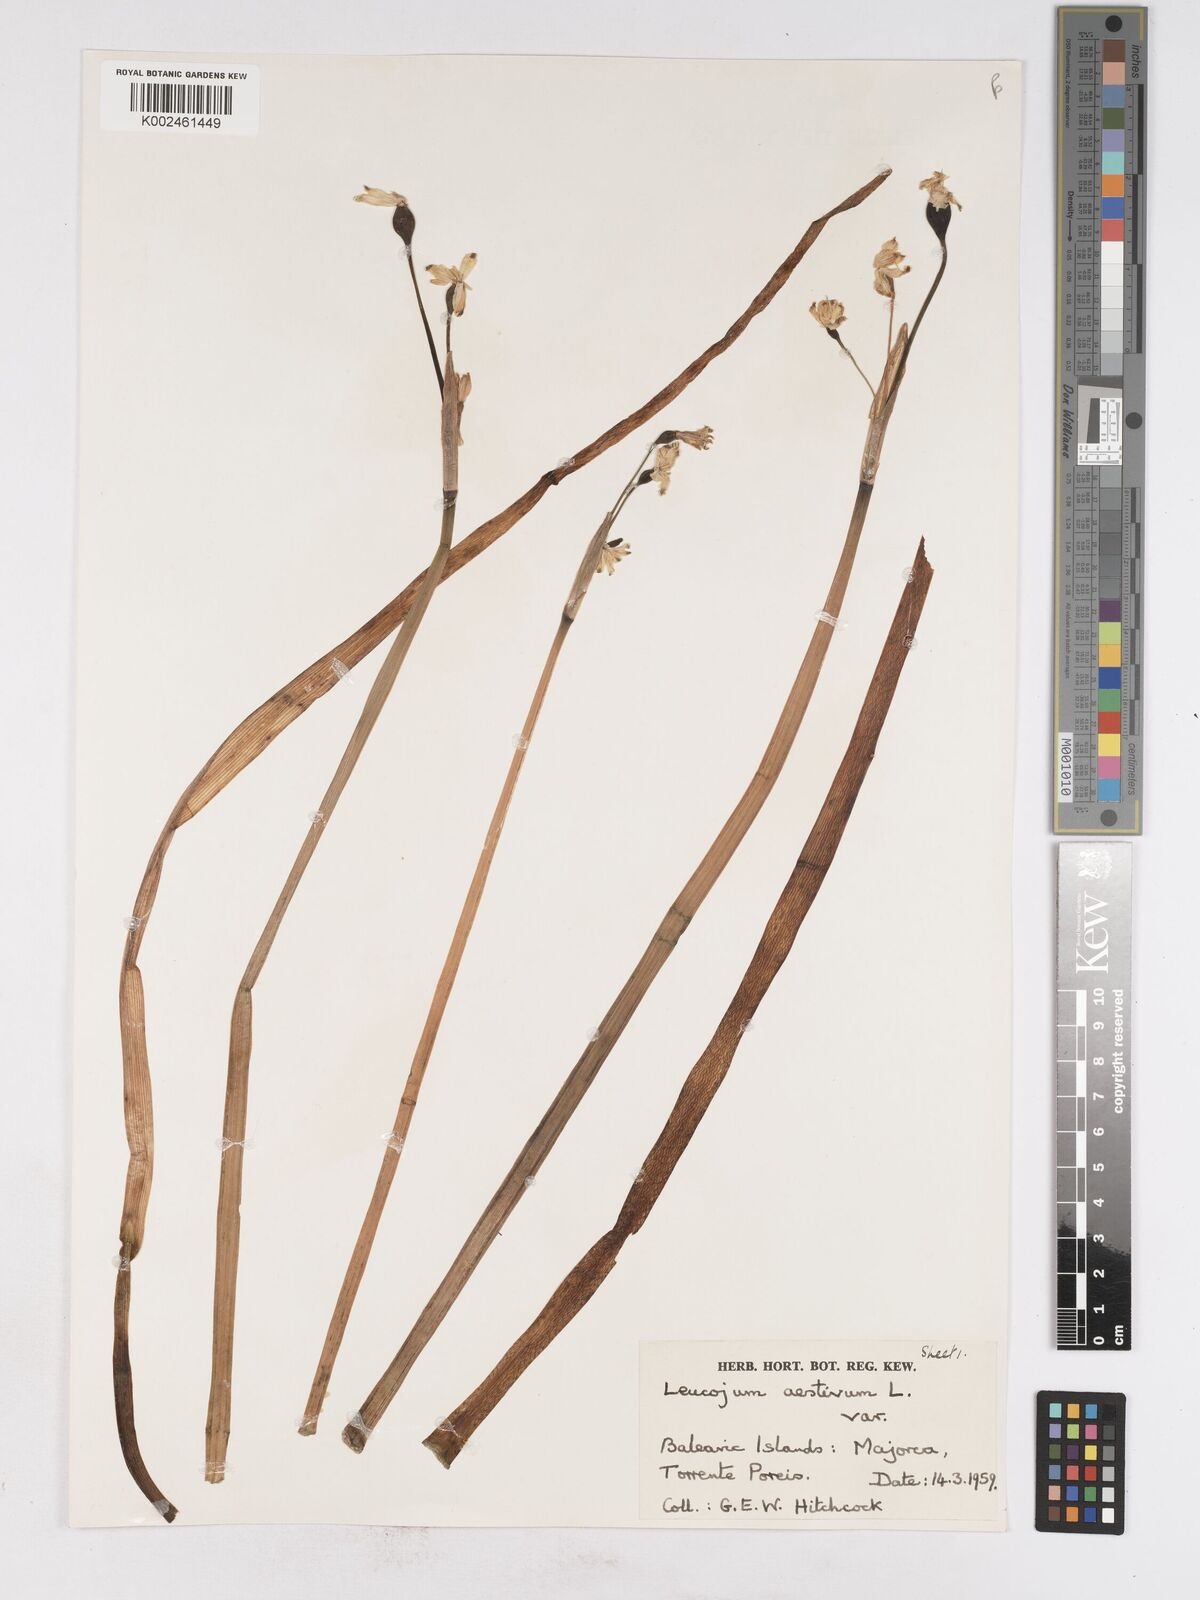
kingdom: Plantae
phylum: Tracheophyta
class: Liliopsida
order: Asparagales
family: Amaryllidaceae
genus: Leucojum
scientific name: Leucojum aestivum
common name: Summer snowflake
